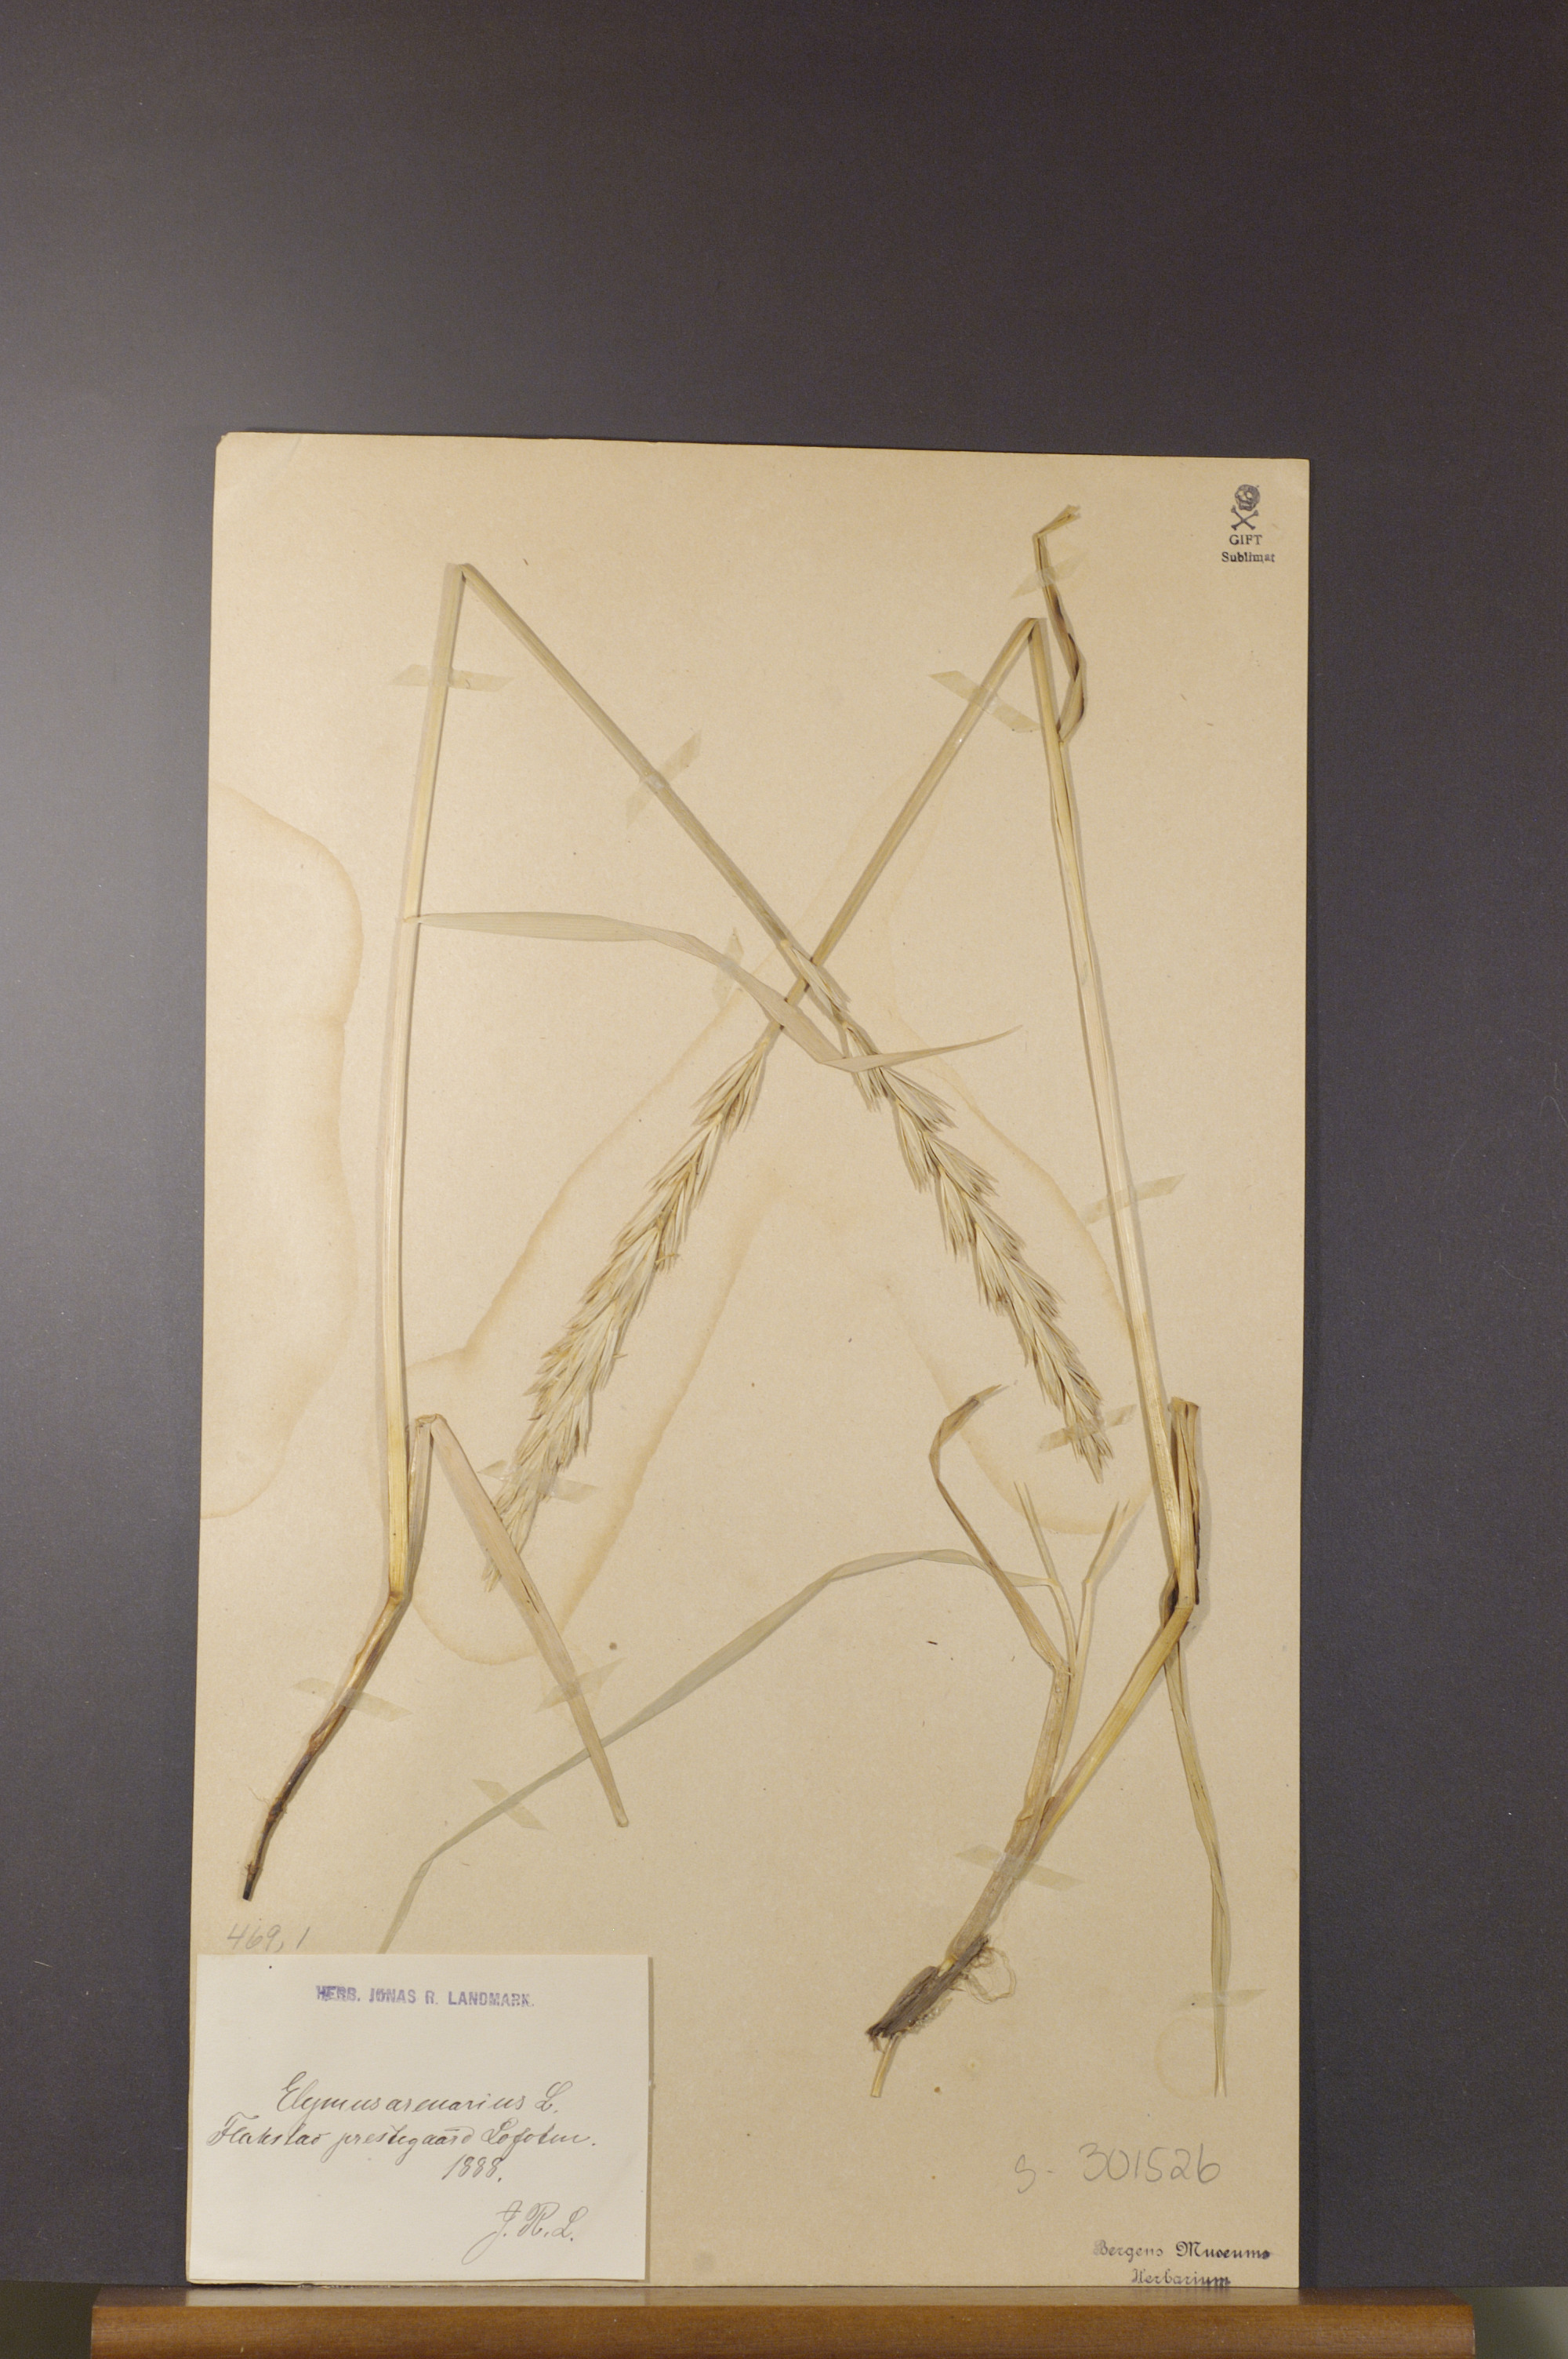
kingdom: Plantae
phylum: Tracheophyta
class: Liliopsida
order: Poales
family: Poaceae
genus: Leymus
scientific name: Leymus arenarius
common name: Lyme-grass
